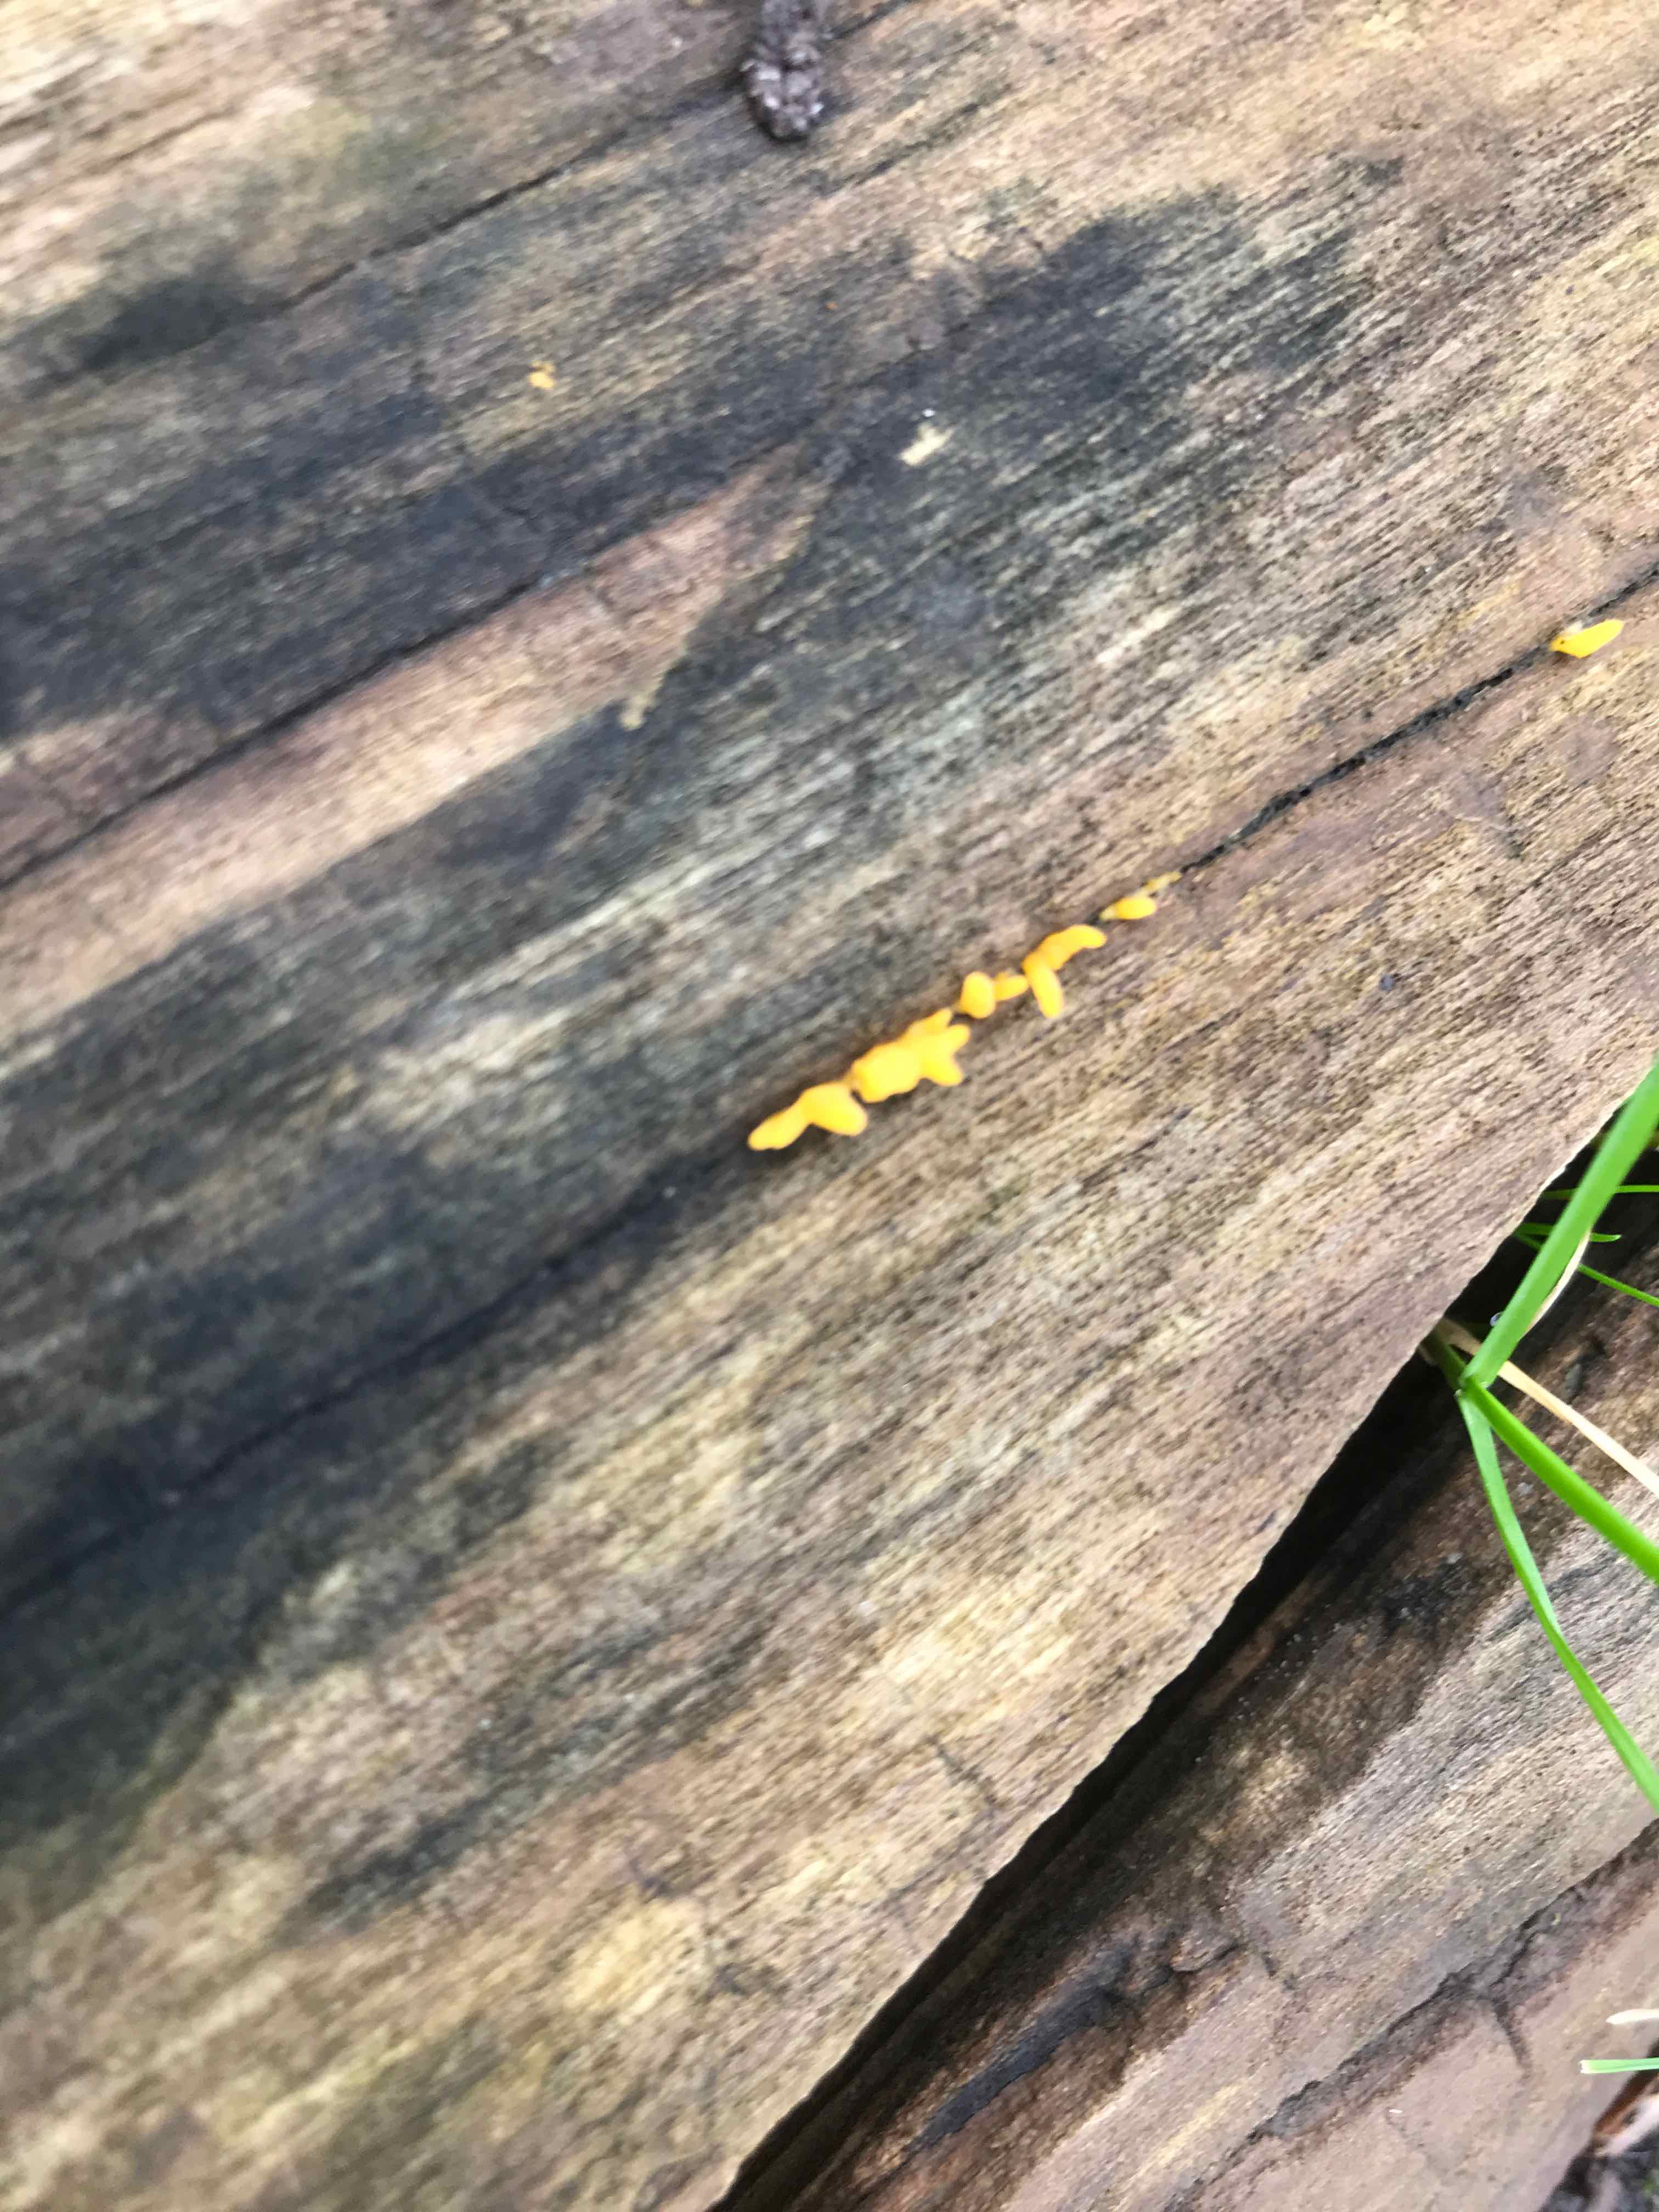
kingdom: Fungi
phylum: Basidiomycota
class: Dacrymycetes
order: Dacrymycetales
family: Dacrymycetaceae
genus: Calocera
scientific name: Calocera cornea
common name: liden guldgaffel
